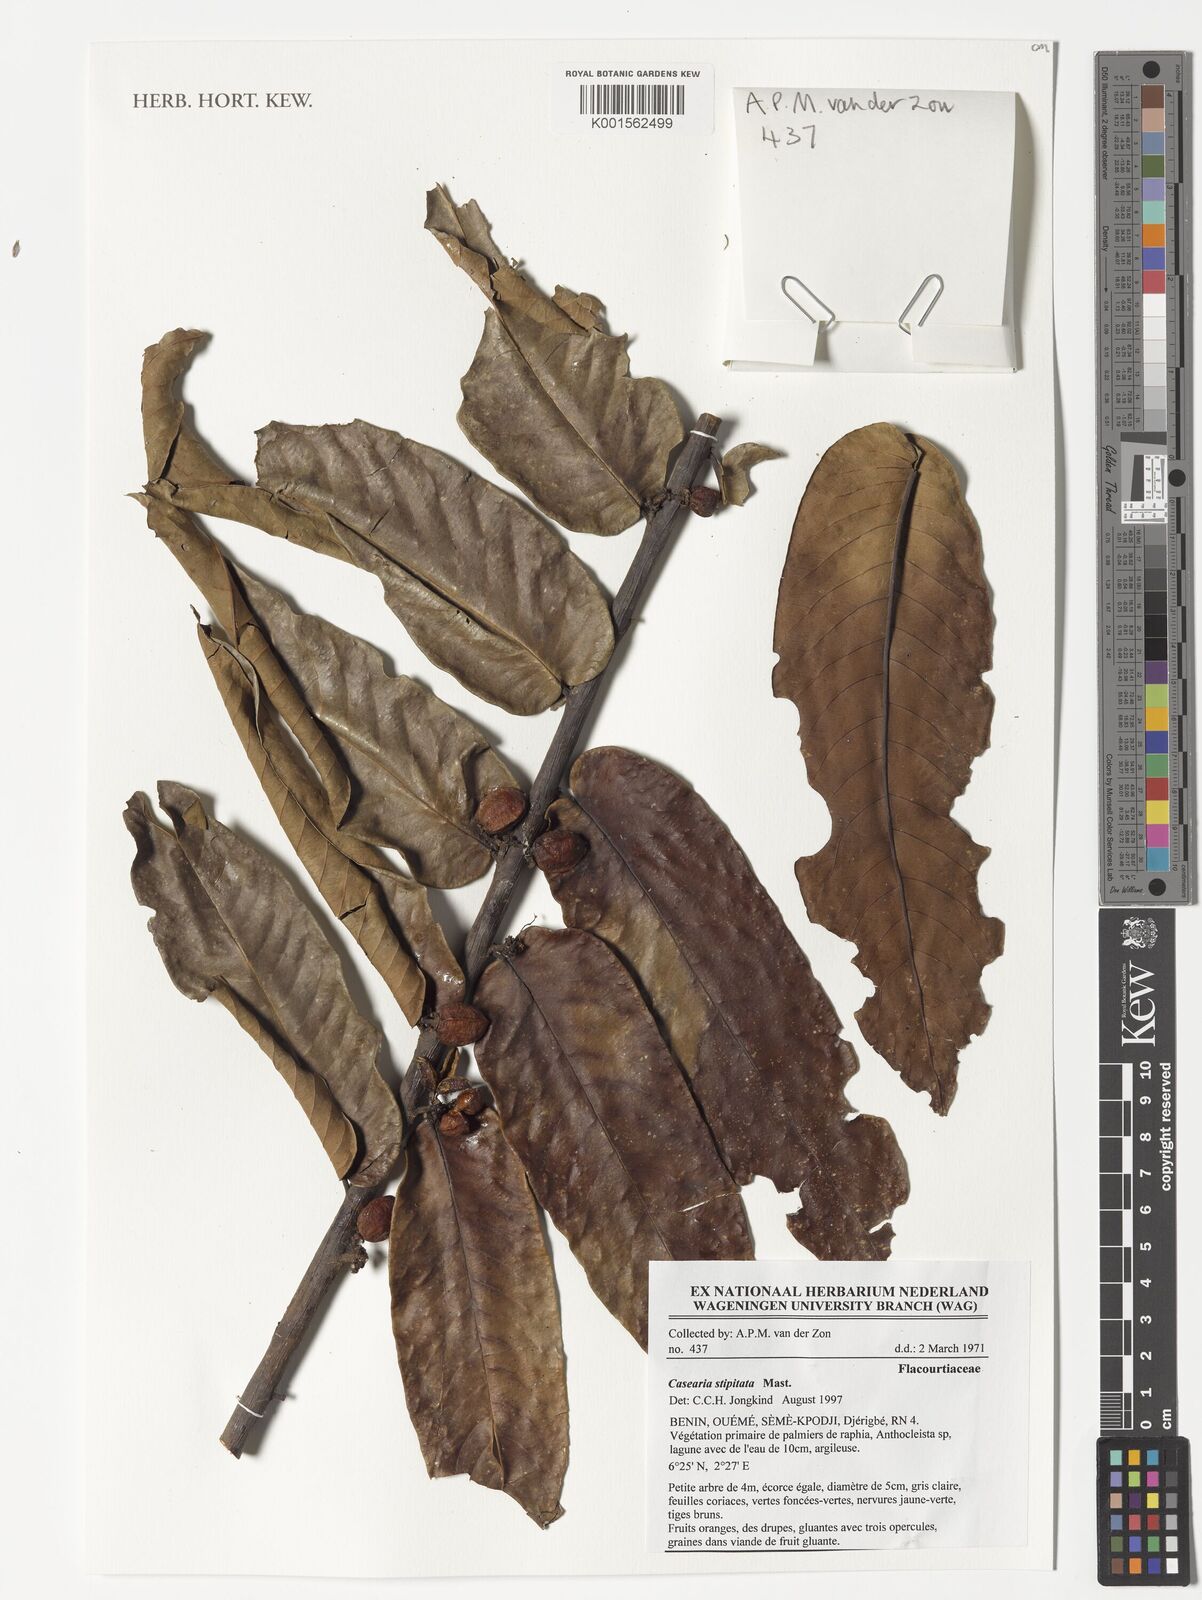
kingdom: Plantae
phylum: Tracheophyta
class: Magnoliopsida
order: Malpighiales
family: Salicaceae
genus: Casearia
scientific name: Casearia stipitata
